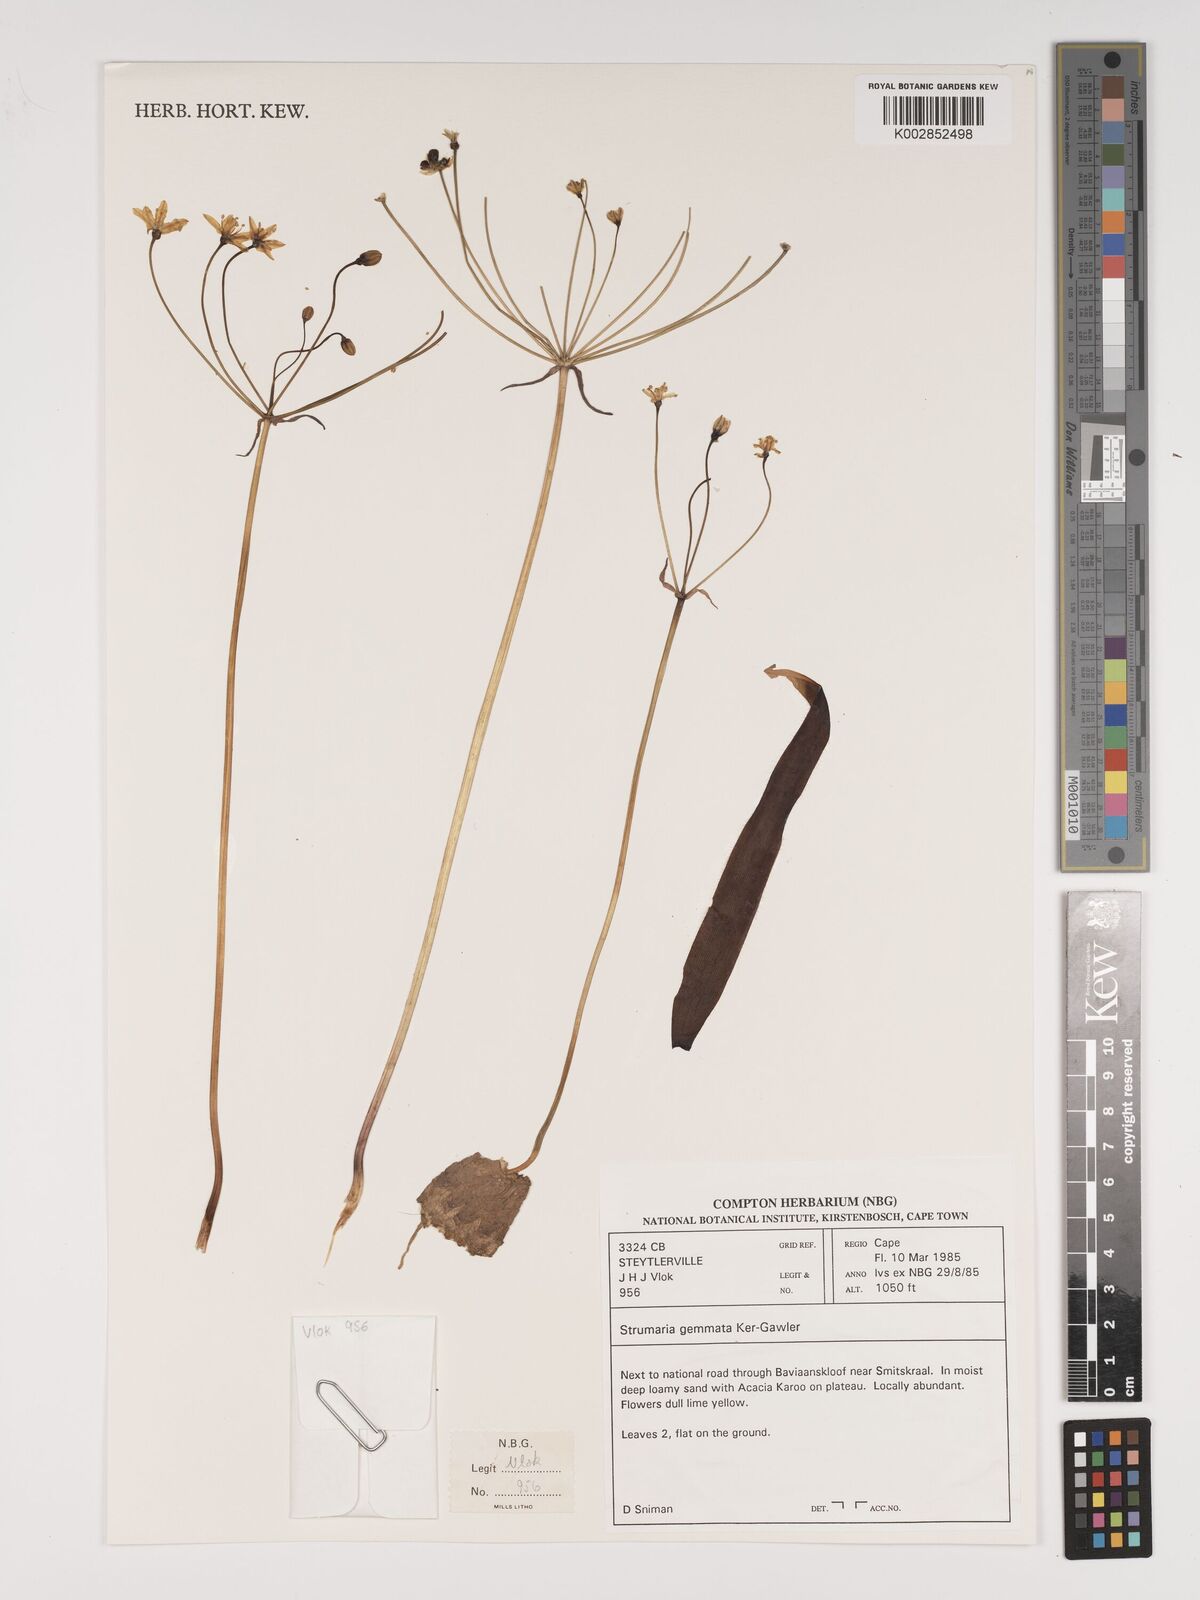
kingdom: Plantae
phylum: Tracheophyta
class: Liliopsida
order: Asparagales
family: Amaryllidaceae
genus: Strumaria
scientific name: Strumaria gemmata
